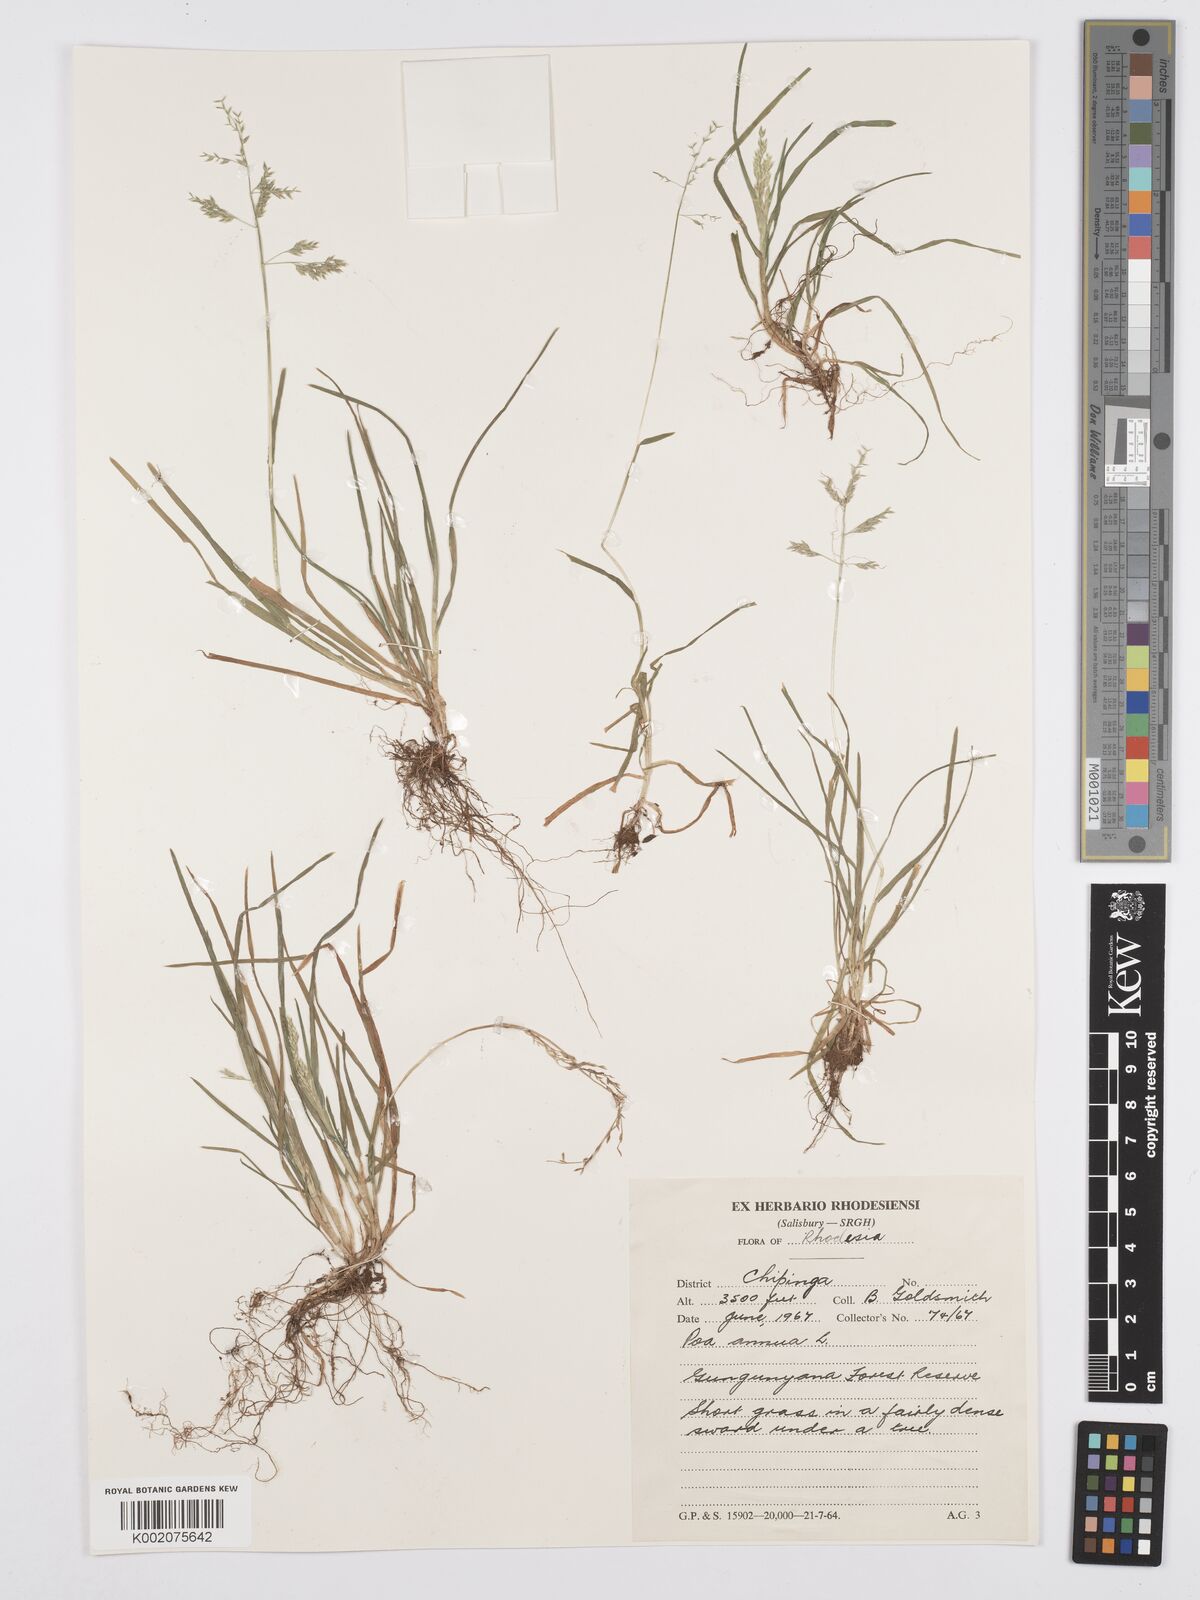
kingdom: Plantae
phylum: Tracheophyta
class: Liliopsida
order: Poales
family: Poaceae
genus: Poa
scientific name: Poa annua
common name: Annual bluegrass
